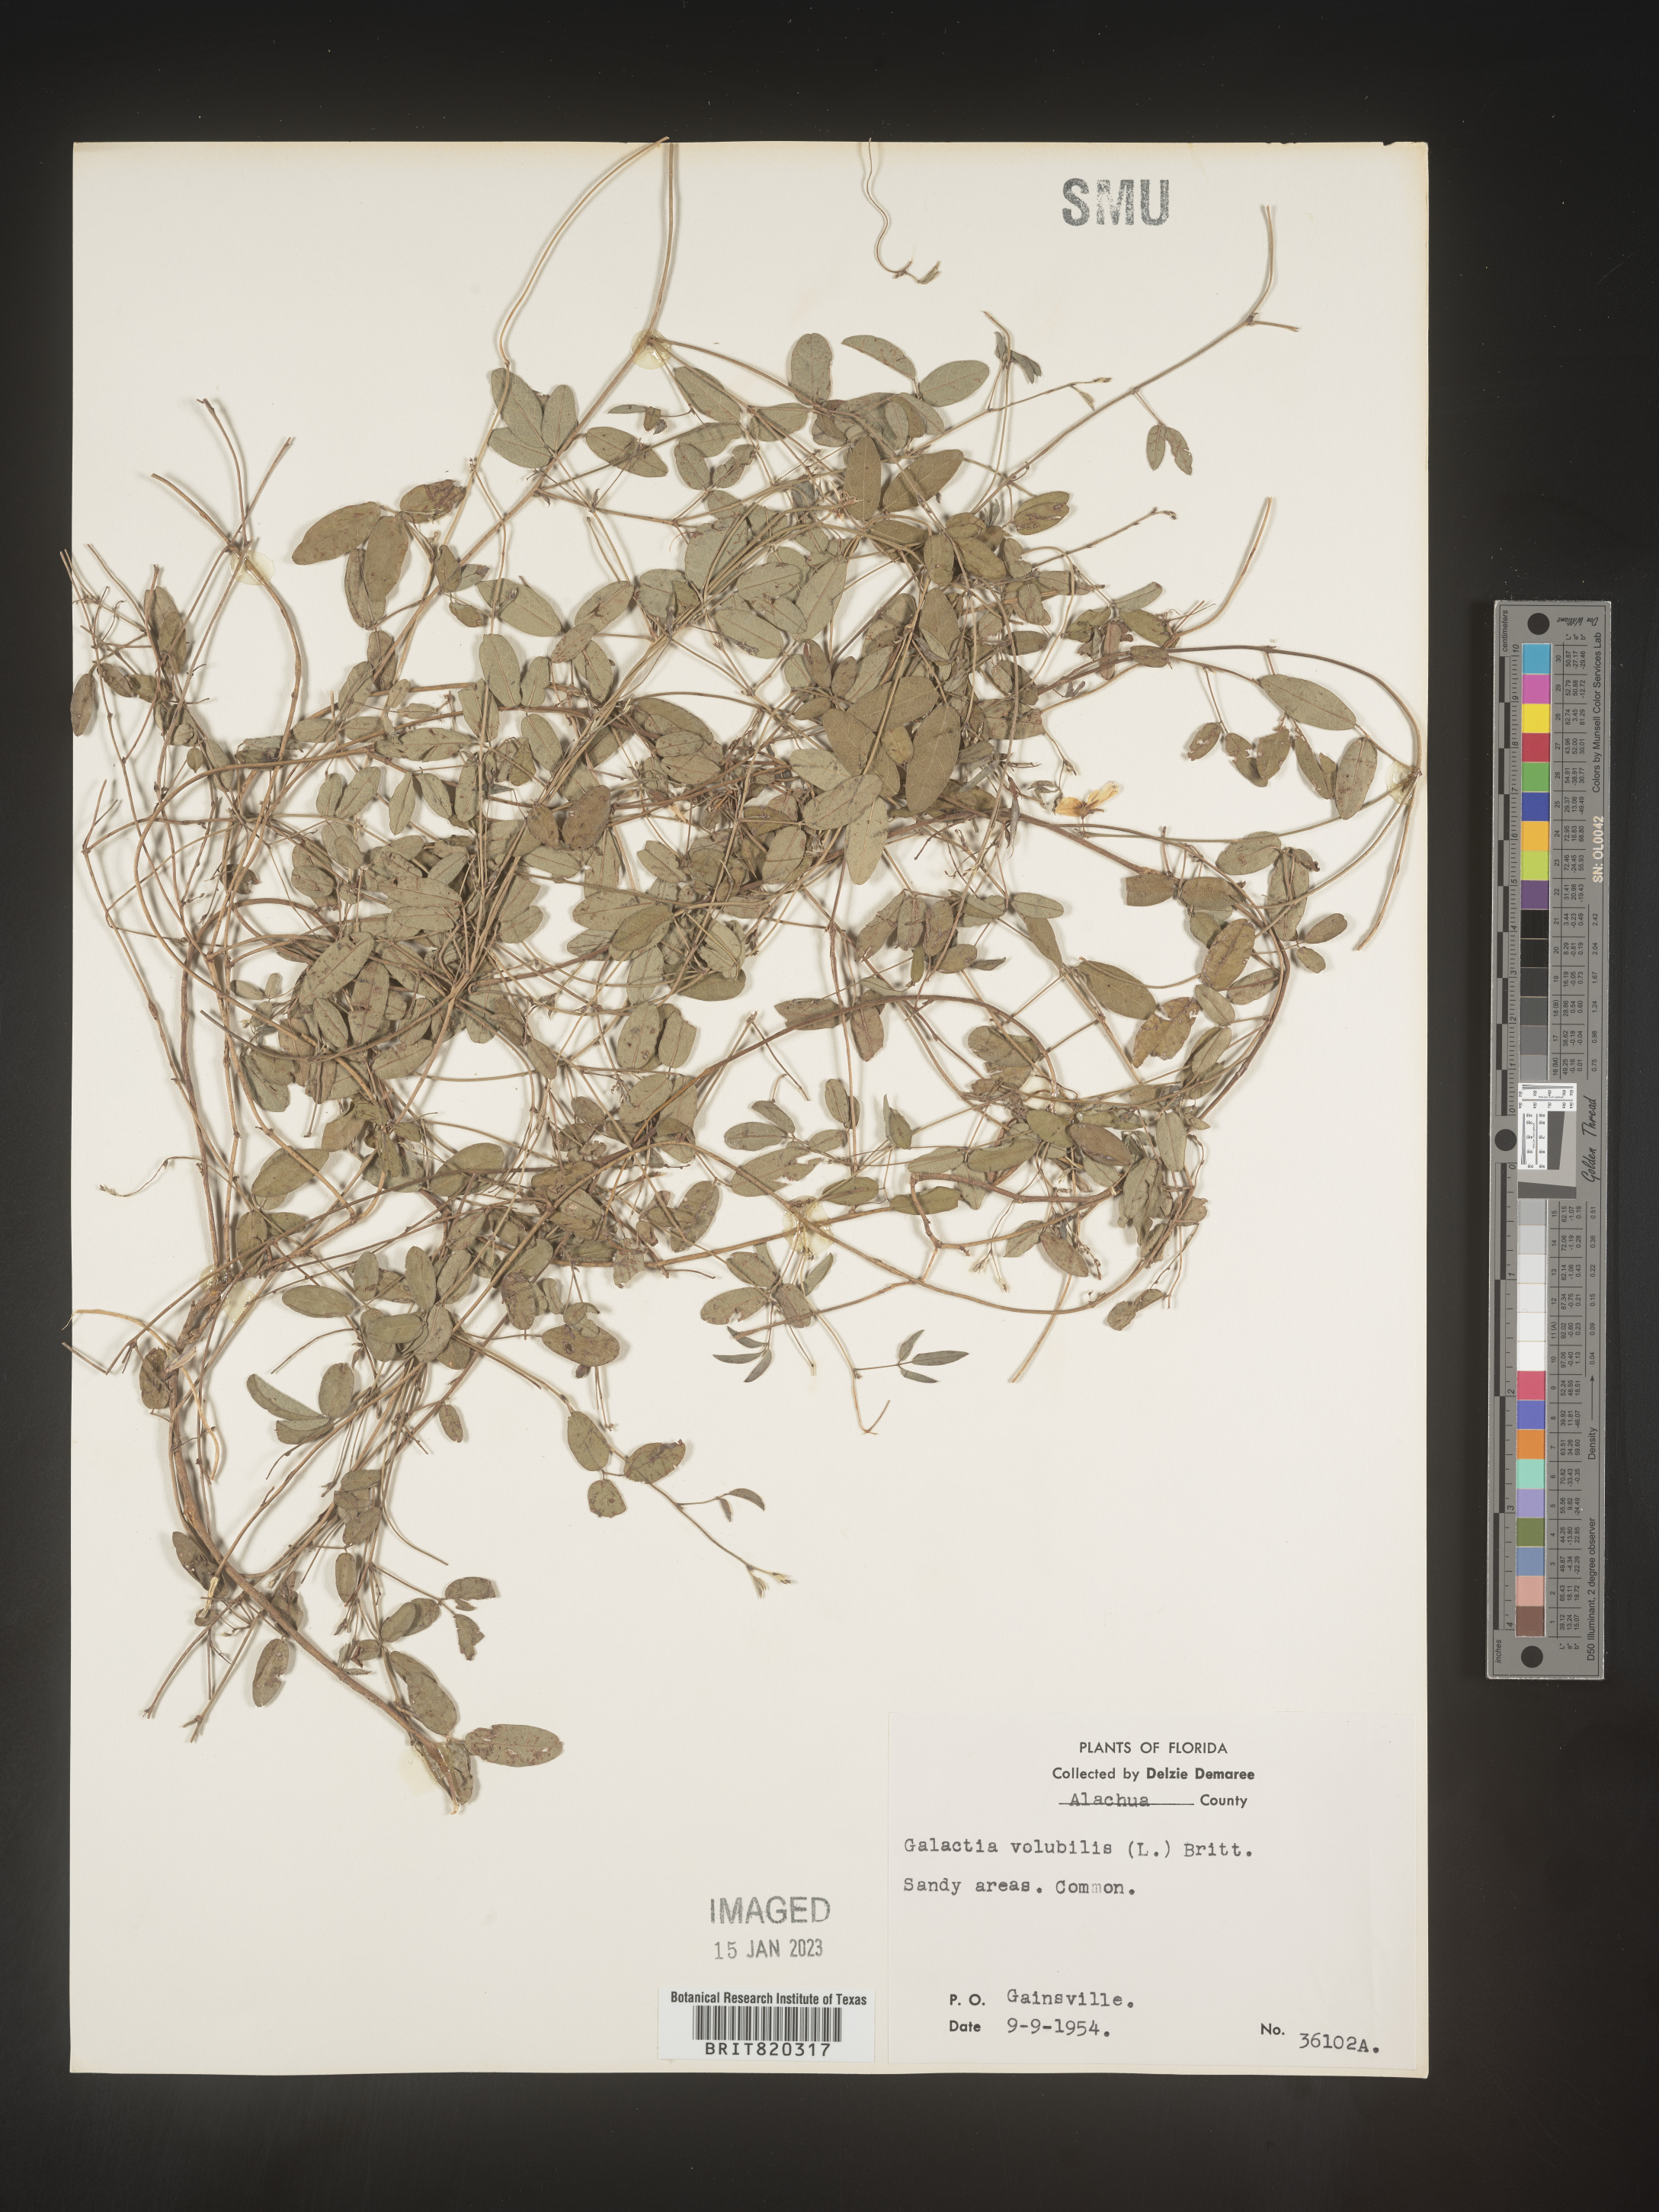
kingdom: Plantae
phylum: Tracheophyta
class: Magnoliopsida
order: Fabales
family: Fabaceae
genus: Galactia
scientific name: Galactia regularis
